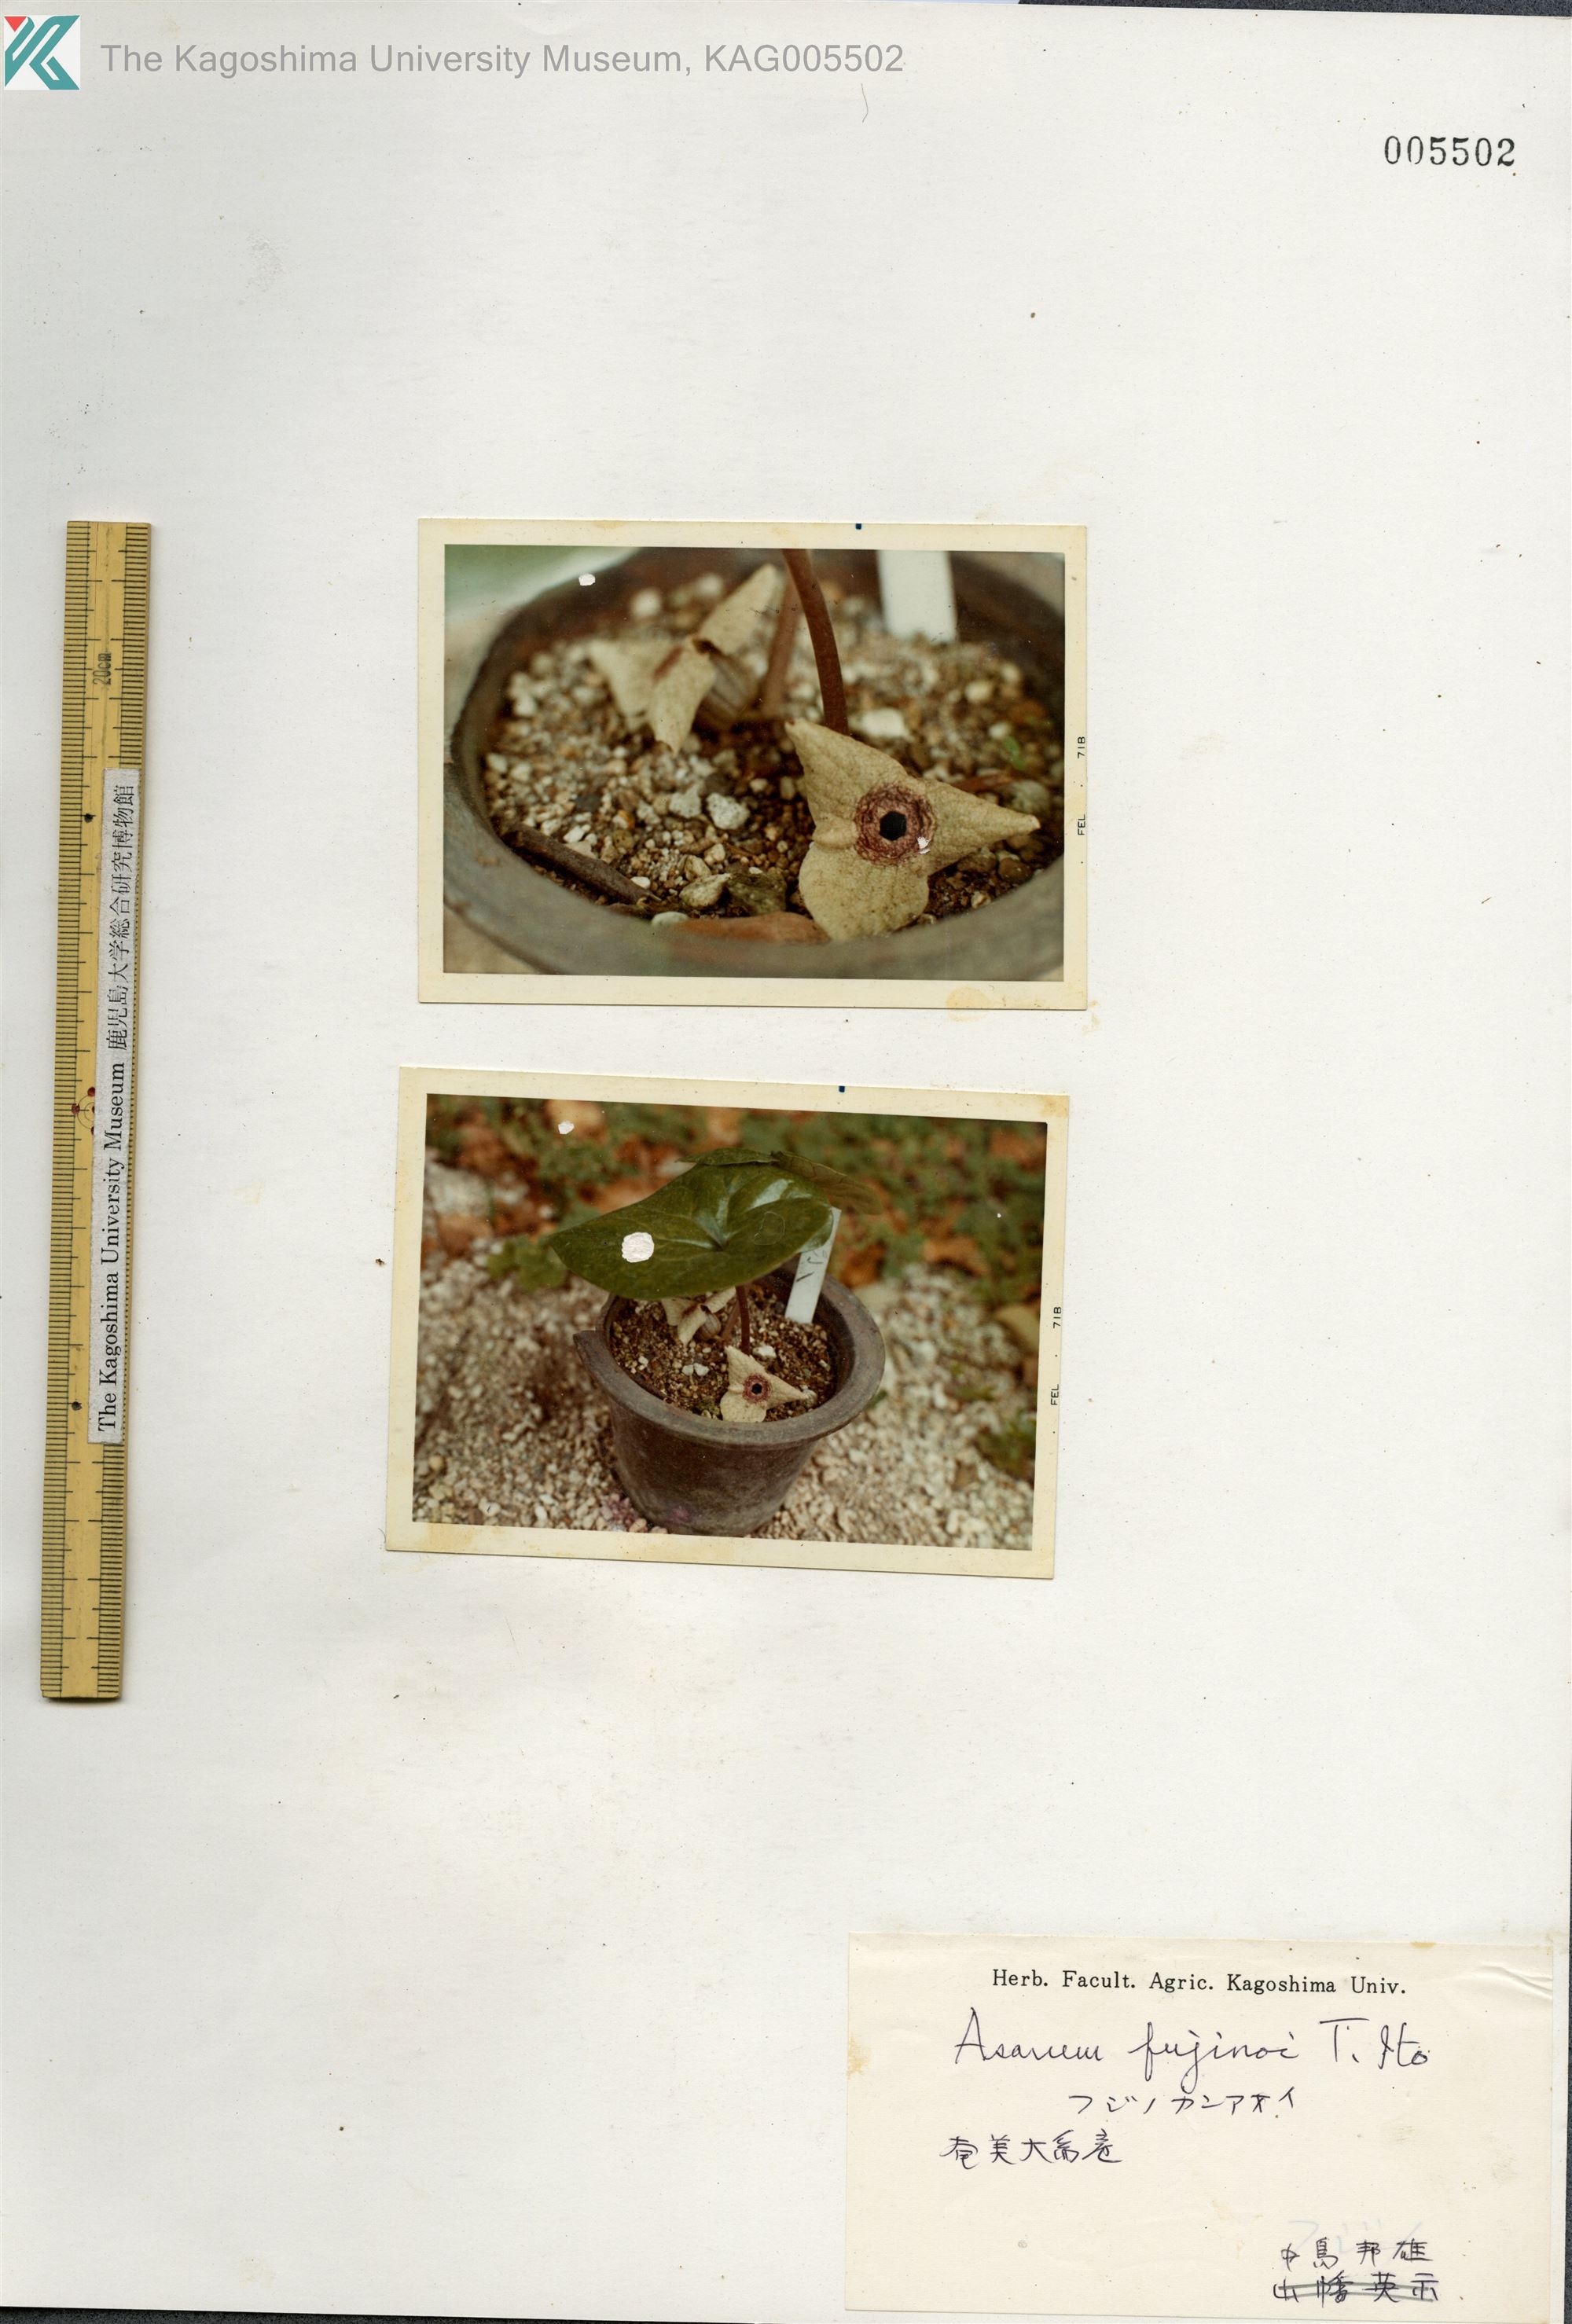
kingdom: Plantae
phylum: Tracheophyta
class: Magnoliopsida
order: Piperales
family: Aristolochiaceae
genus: Asarum
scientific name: Asarum
